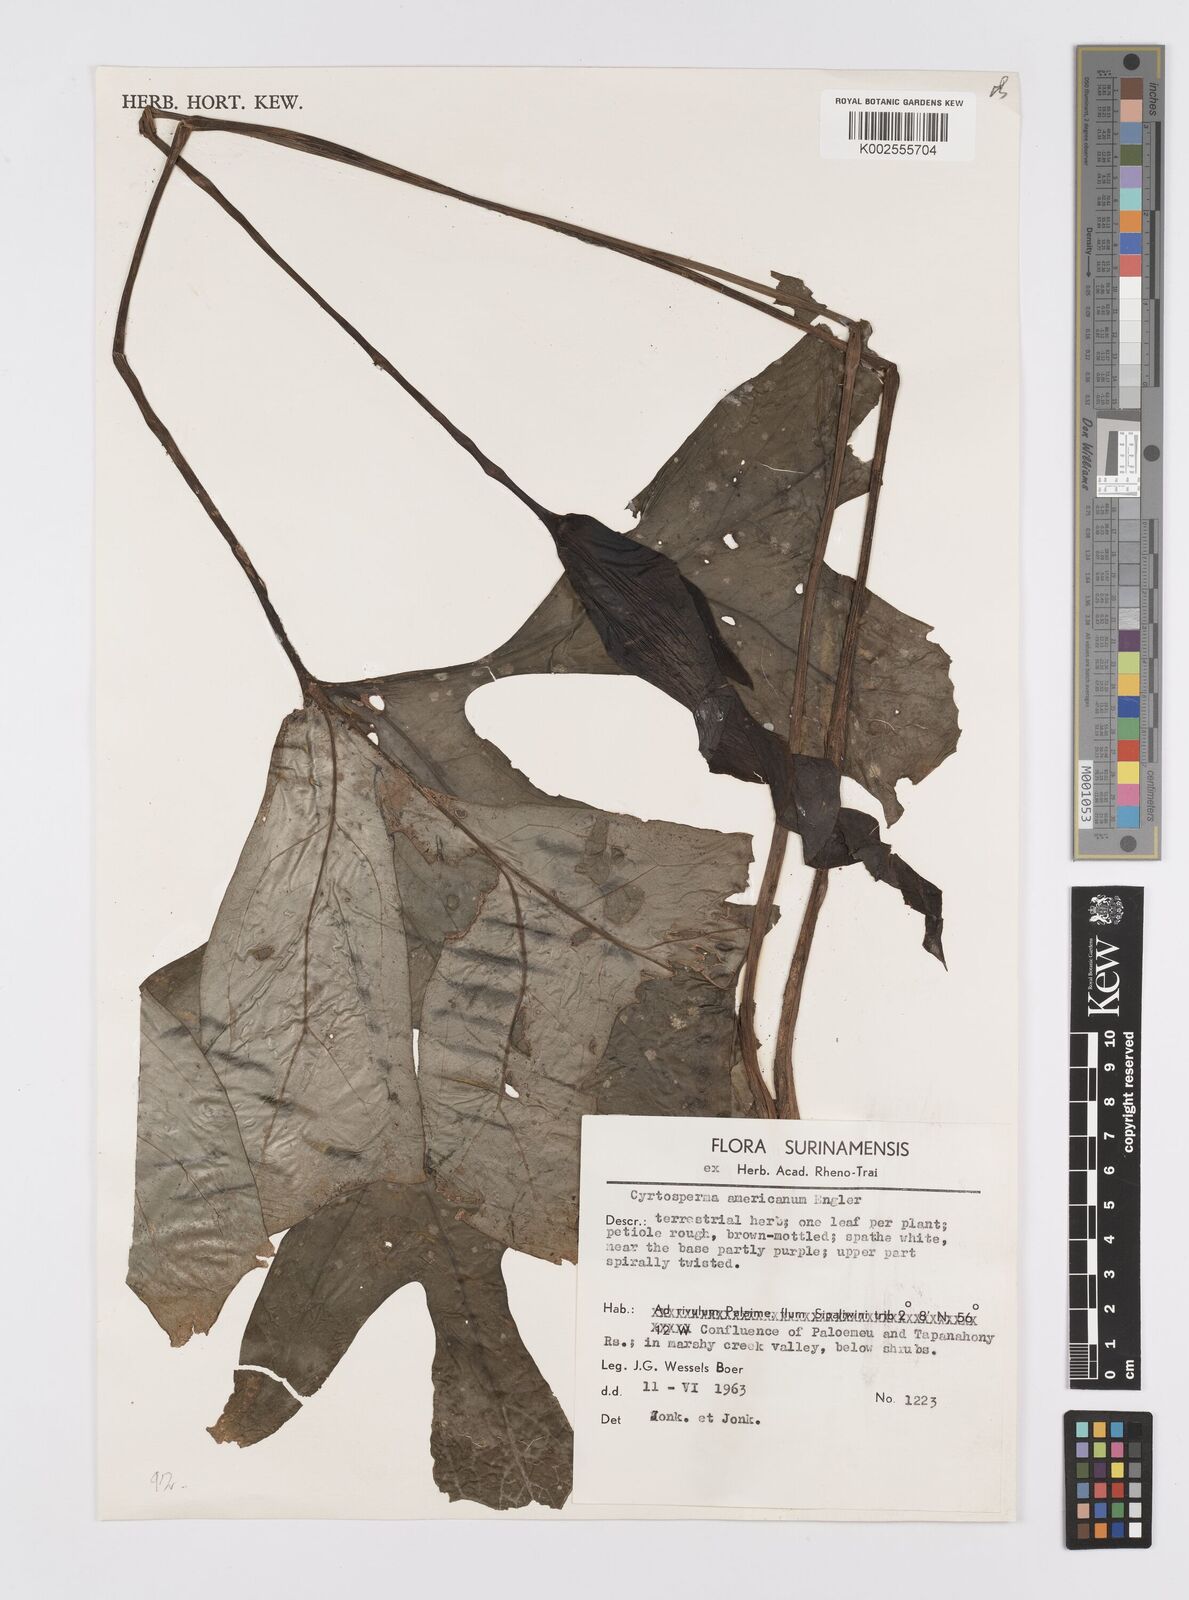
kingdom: Plantae
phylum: Tracheophyta
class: Liliopsida
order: Alismatales
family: Araceae
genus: Anaphyllopsis
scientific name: Anaphyllopsis americana
